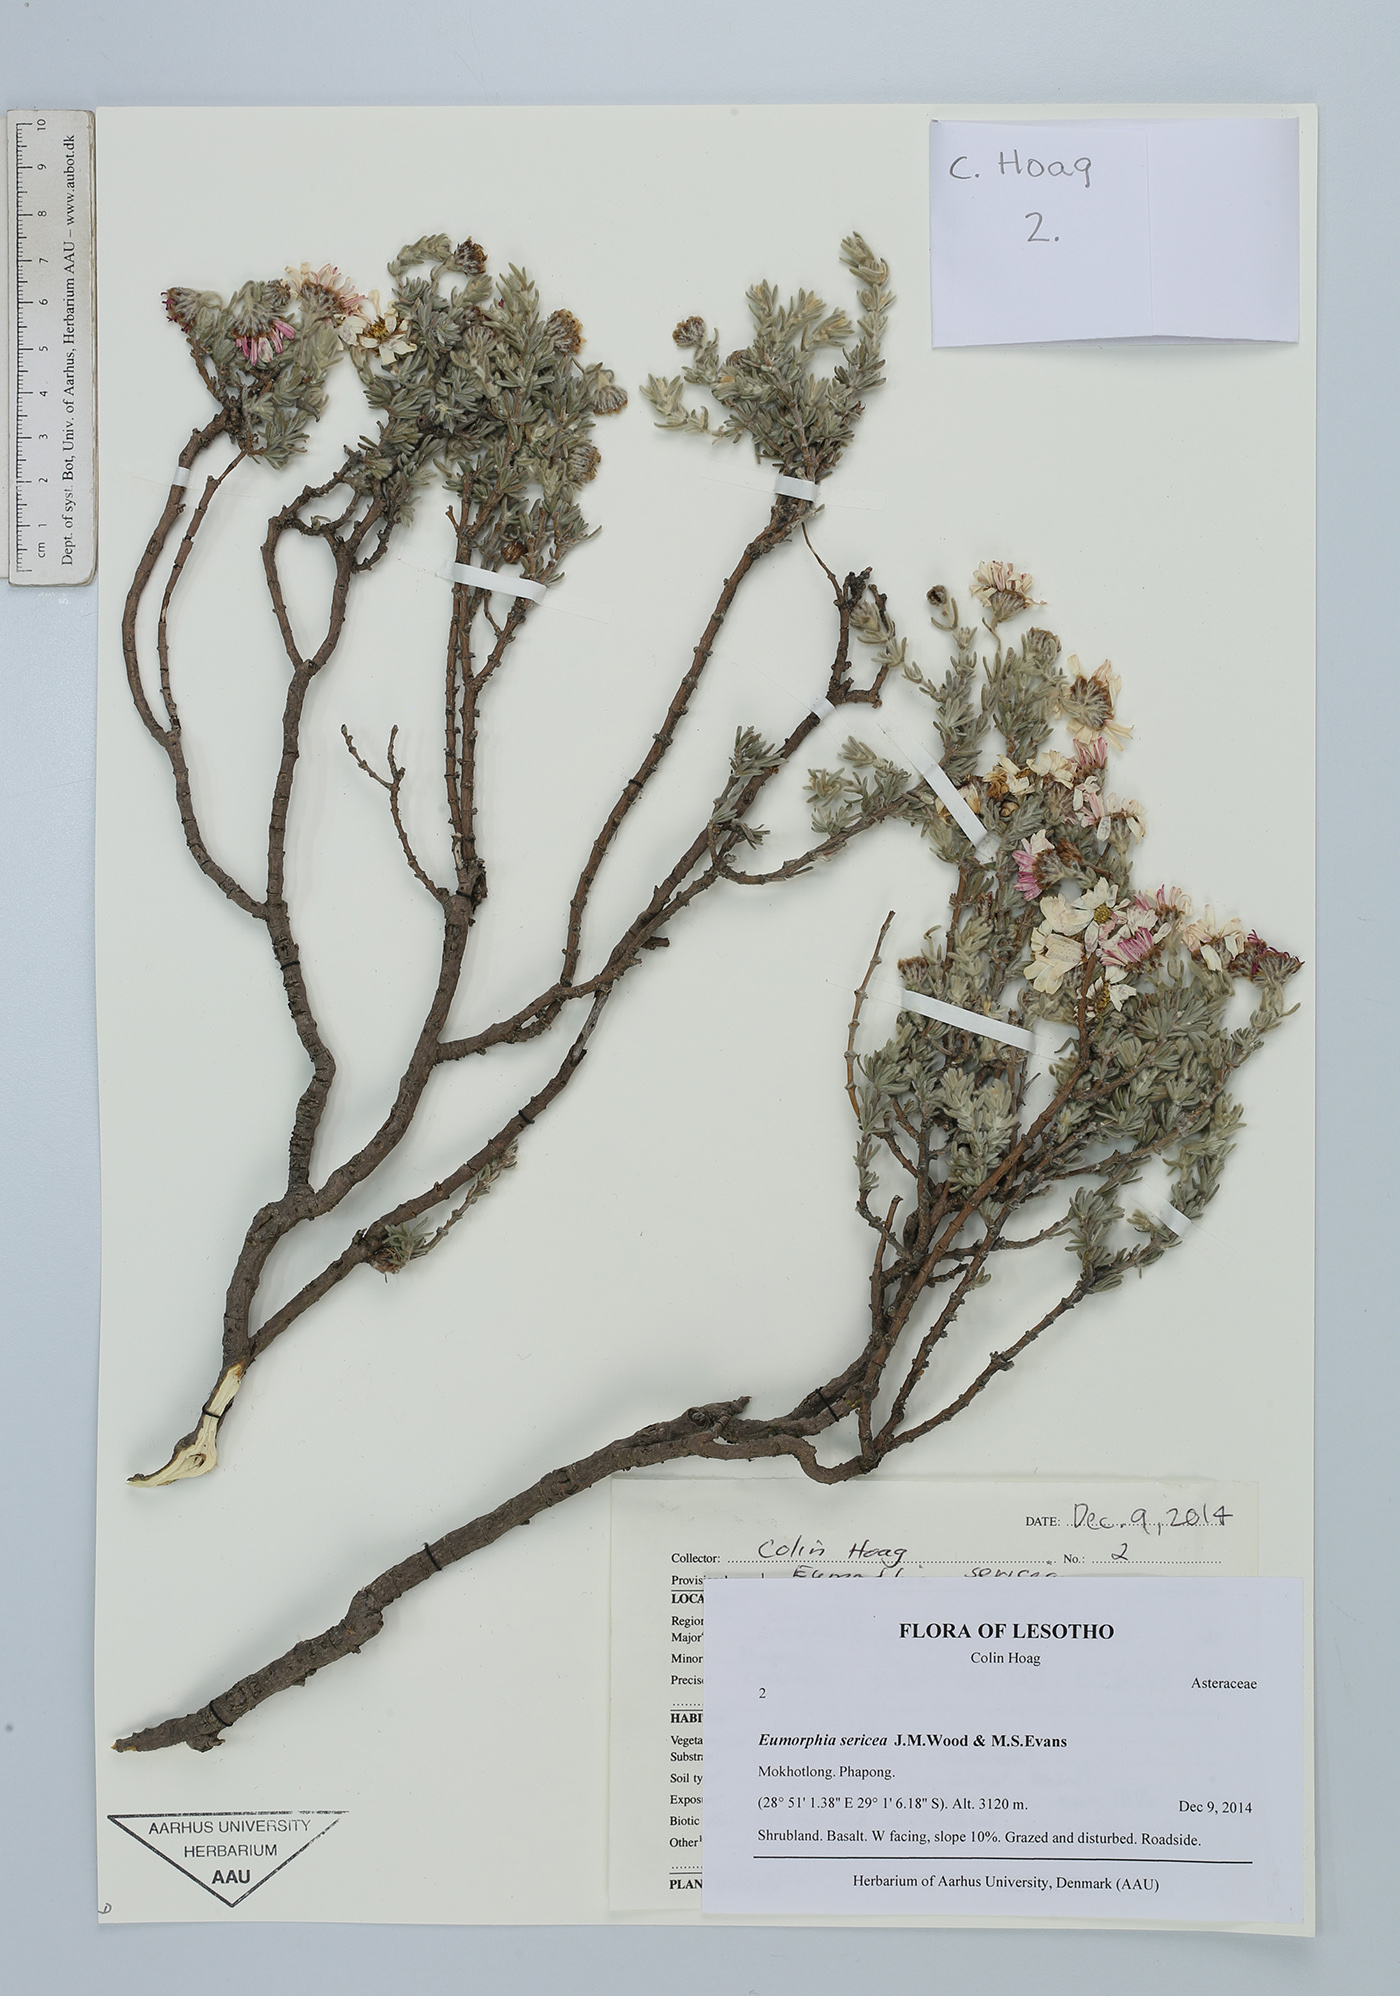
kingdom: Plantae
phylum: Tracheophyta
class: Magnoliopsida
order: Asterales
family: Asteraceae
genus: Eumorphia
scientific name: Eumorphia sericea
